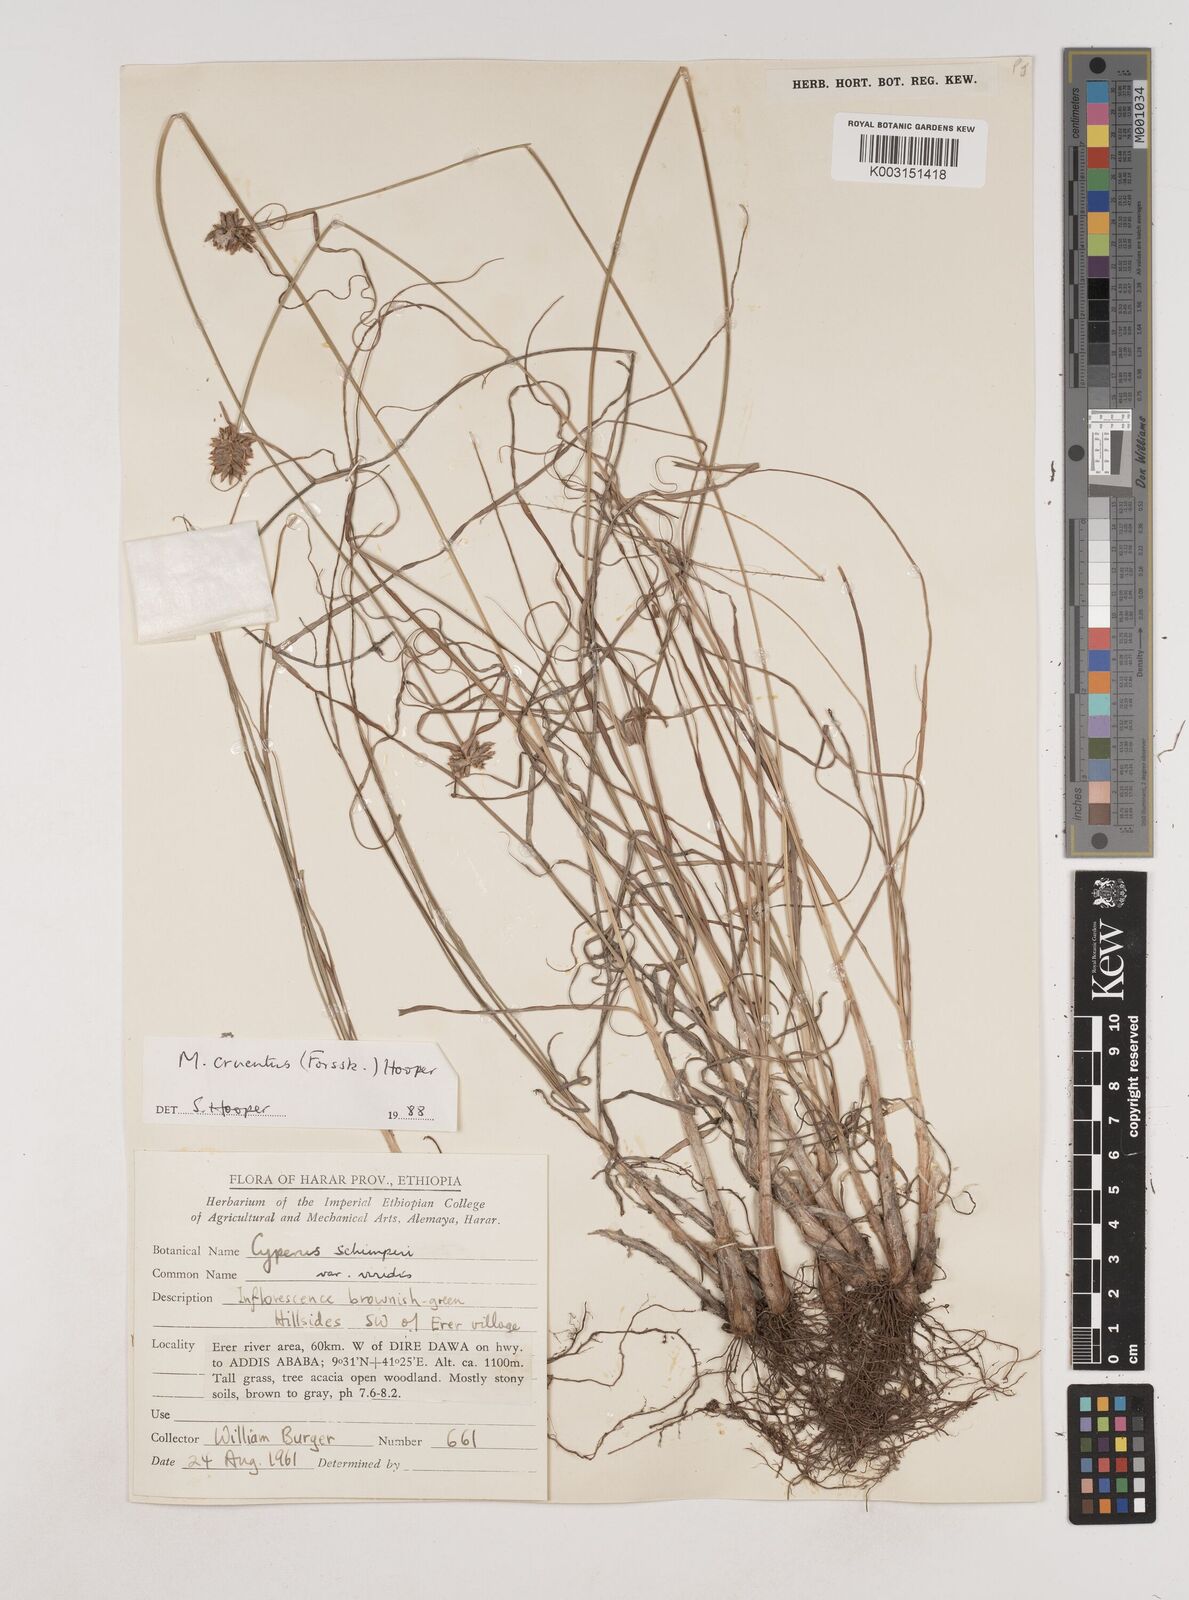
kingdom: Plantae
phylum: Tracheophyta
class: Liliopsida
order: Poales
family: Cyperaceae
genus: Cyperus
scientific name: Cyperus cruentus
